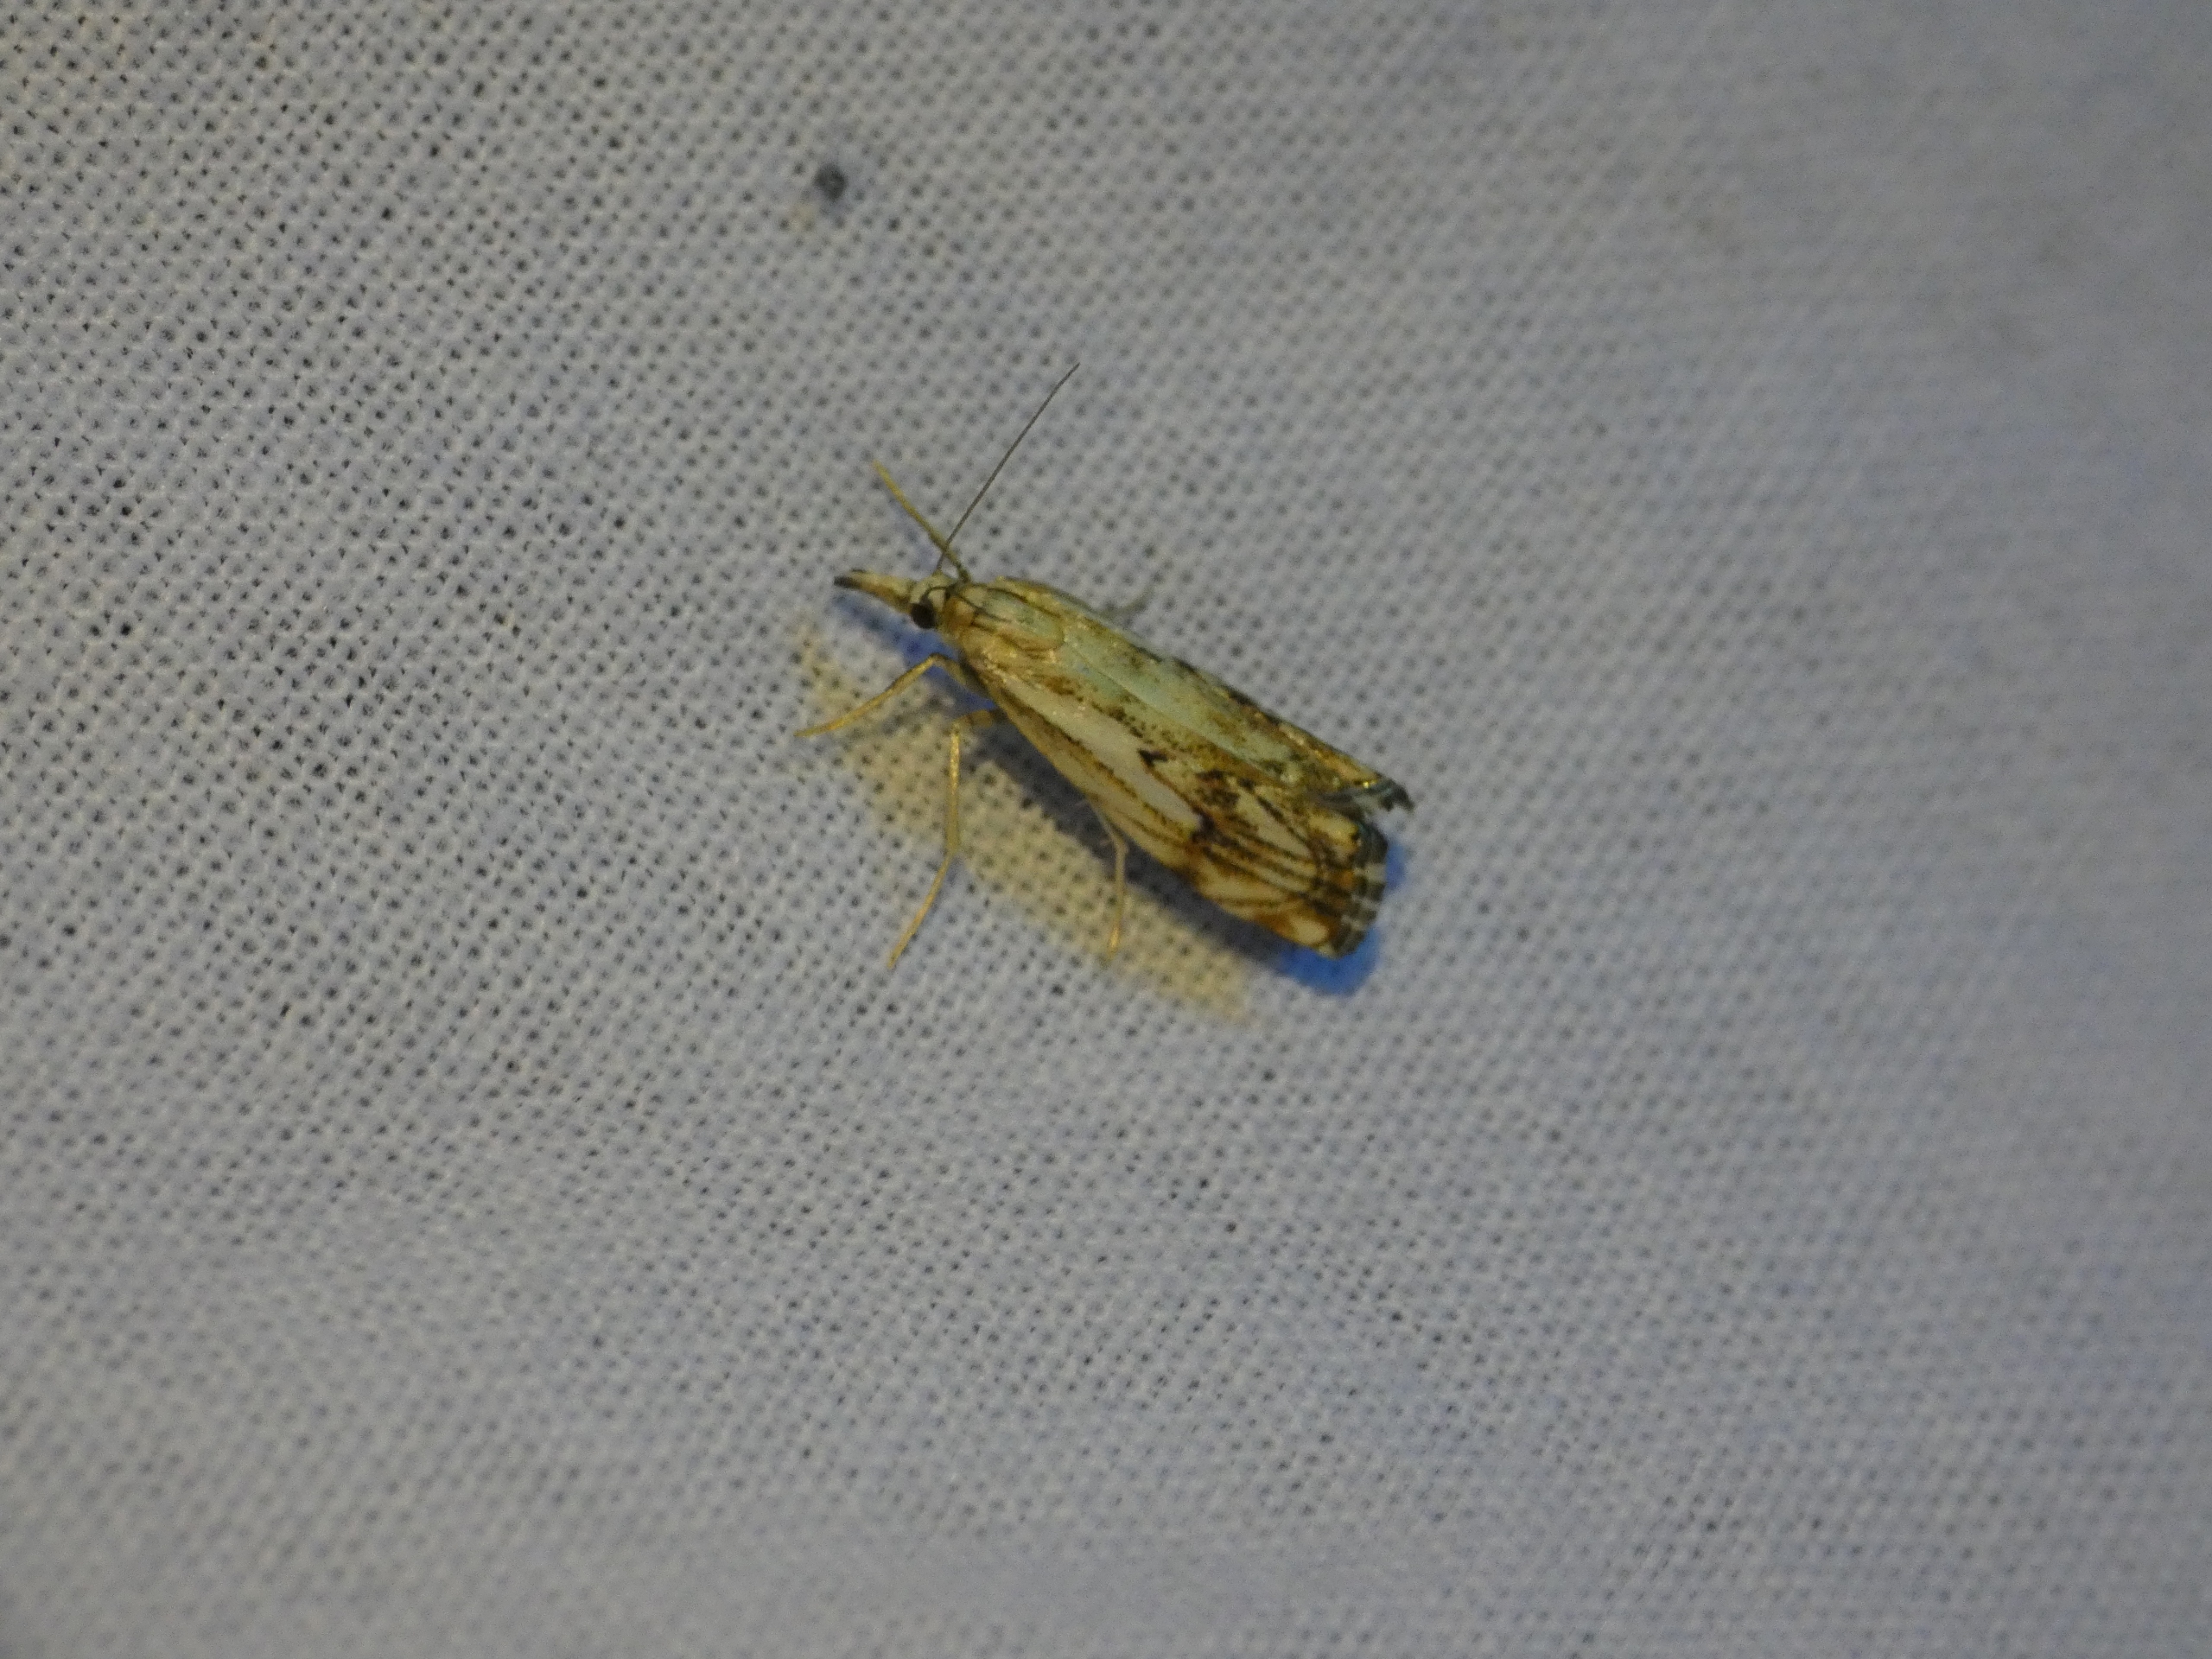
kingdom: Animalia
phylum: Arthropoda
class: Insecta
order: Lepidoptera
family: Crambidae
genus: Catoptria
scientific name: Catoptria falsella
